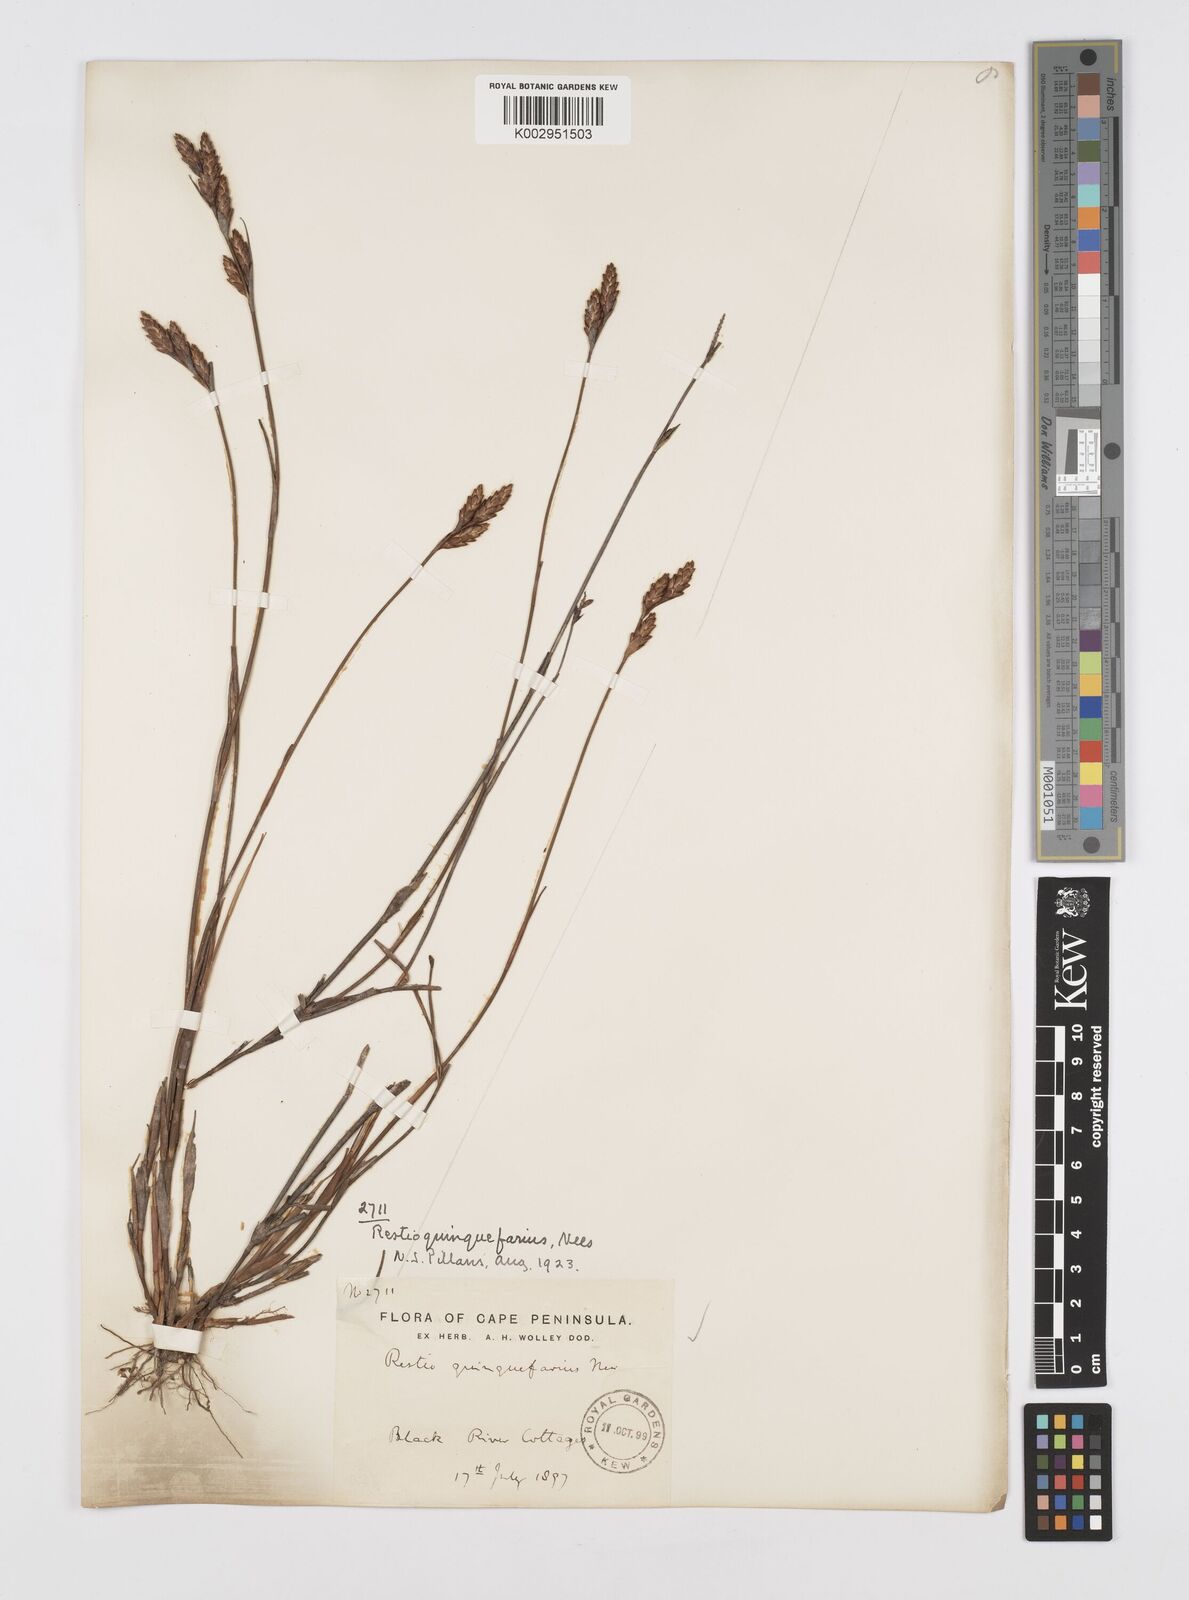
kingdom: Plantae
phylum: Tracheophyta
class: Liliopsida
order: Poales
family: Restionaceae
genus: Restio
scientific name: Restio quinquefarius
